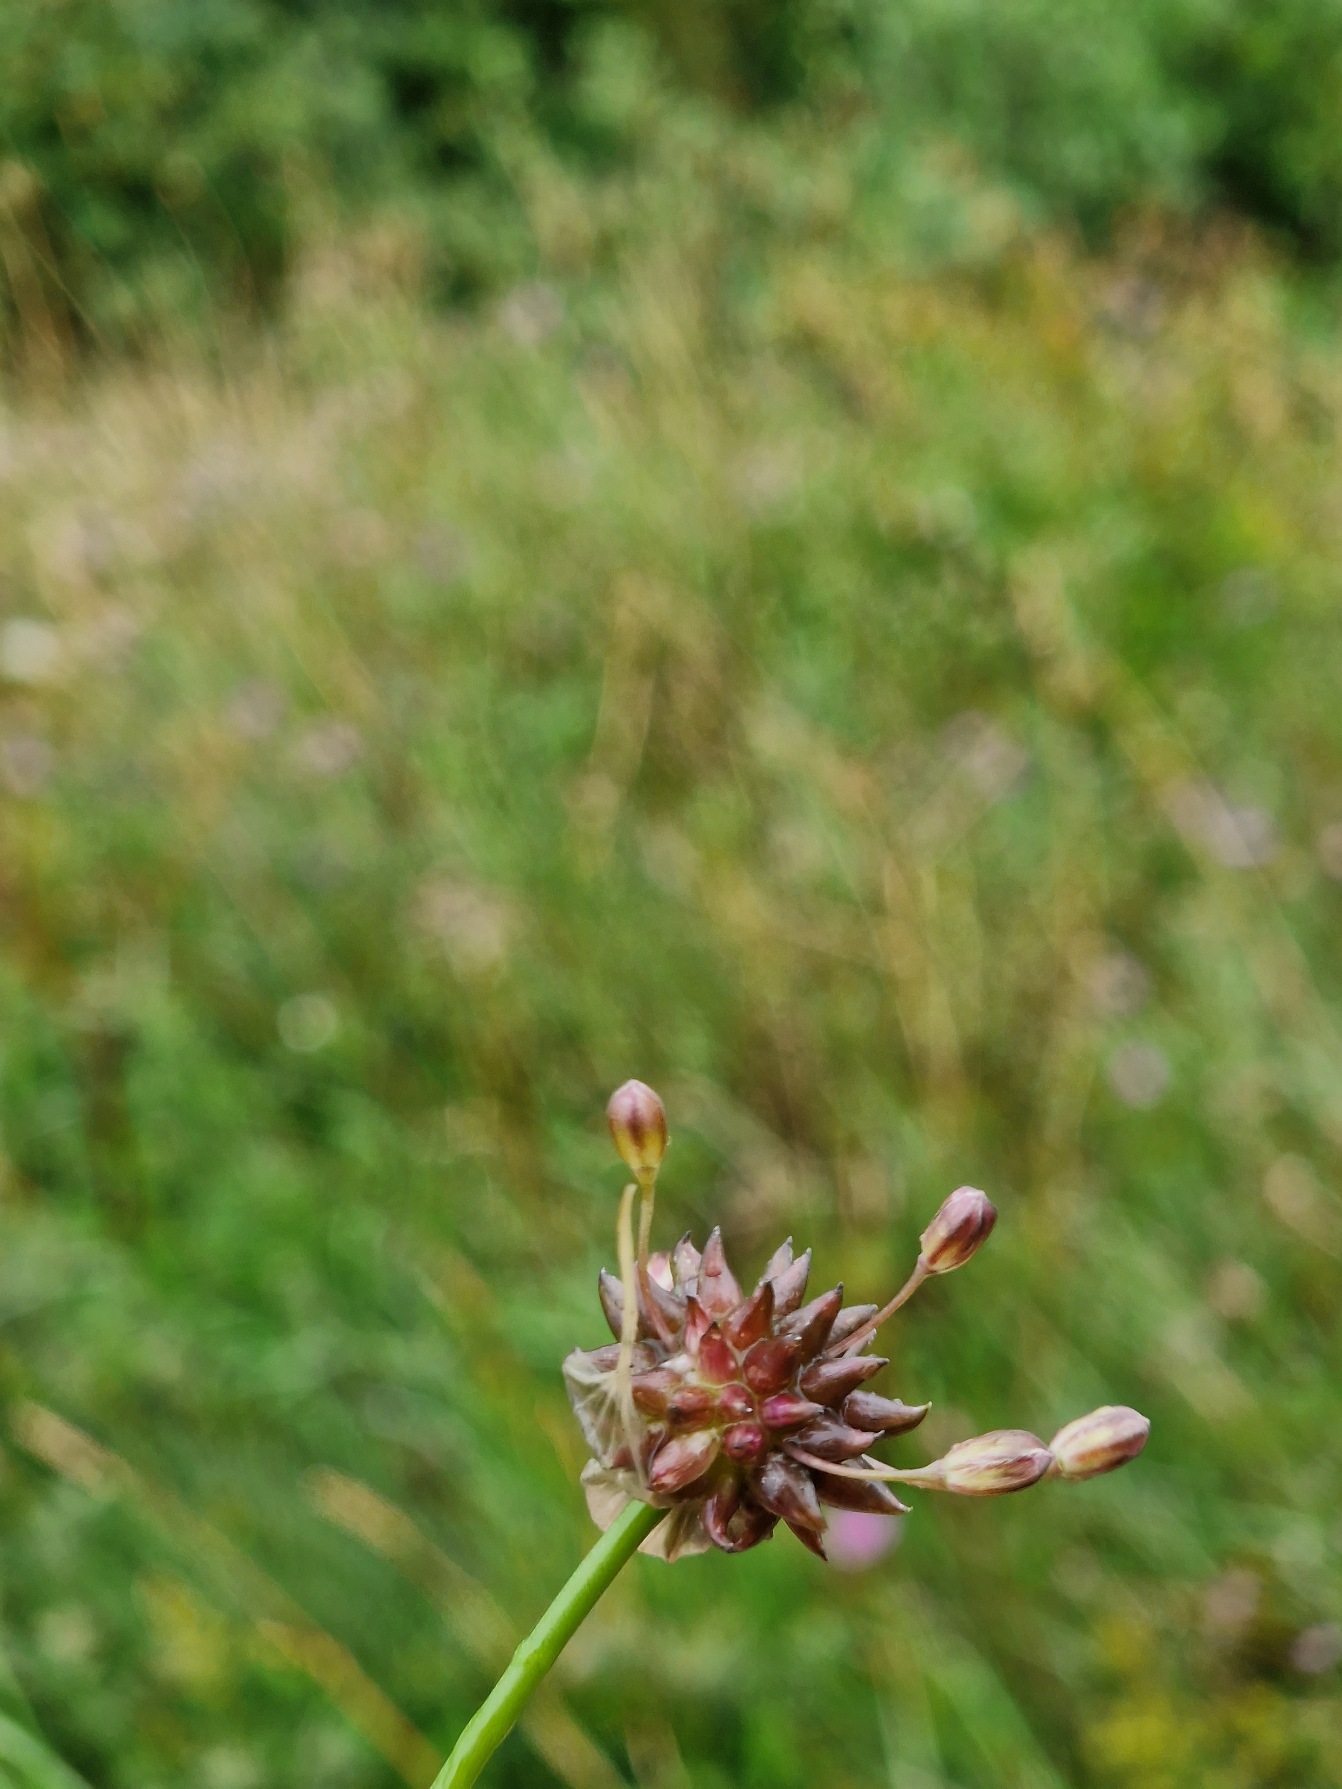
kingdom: Plantae
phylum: Tracheophyta
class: Liliopsida
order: Asparagales
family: Amaryllidaceae
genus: Allium
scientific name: Allium oleraceum
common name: Vild løg
